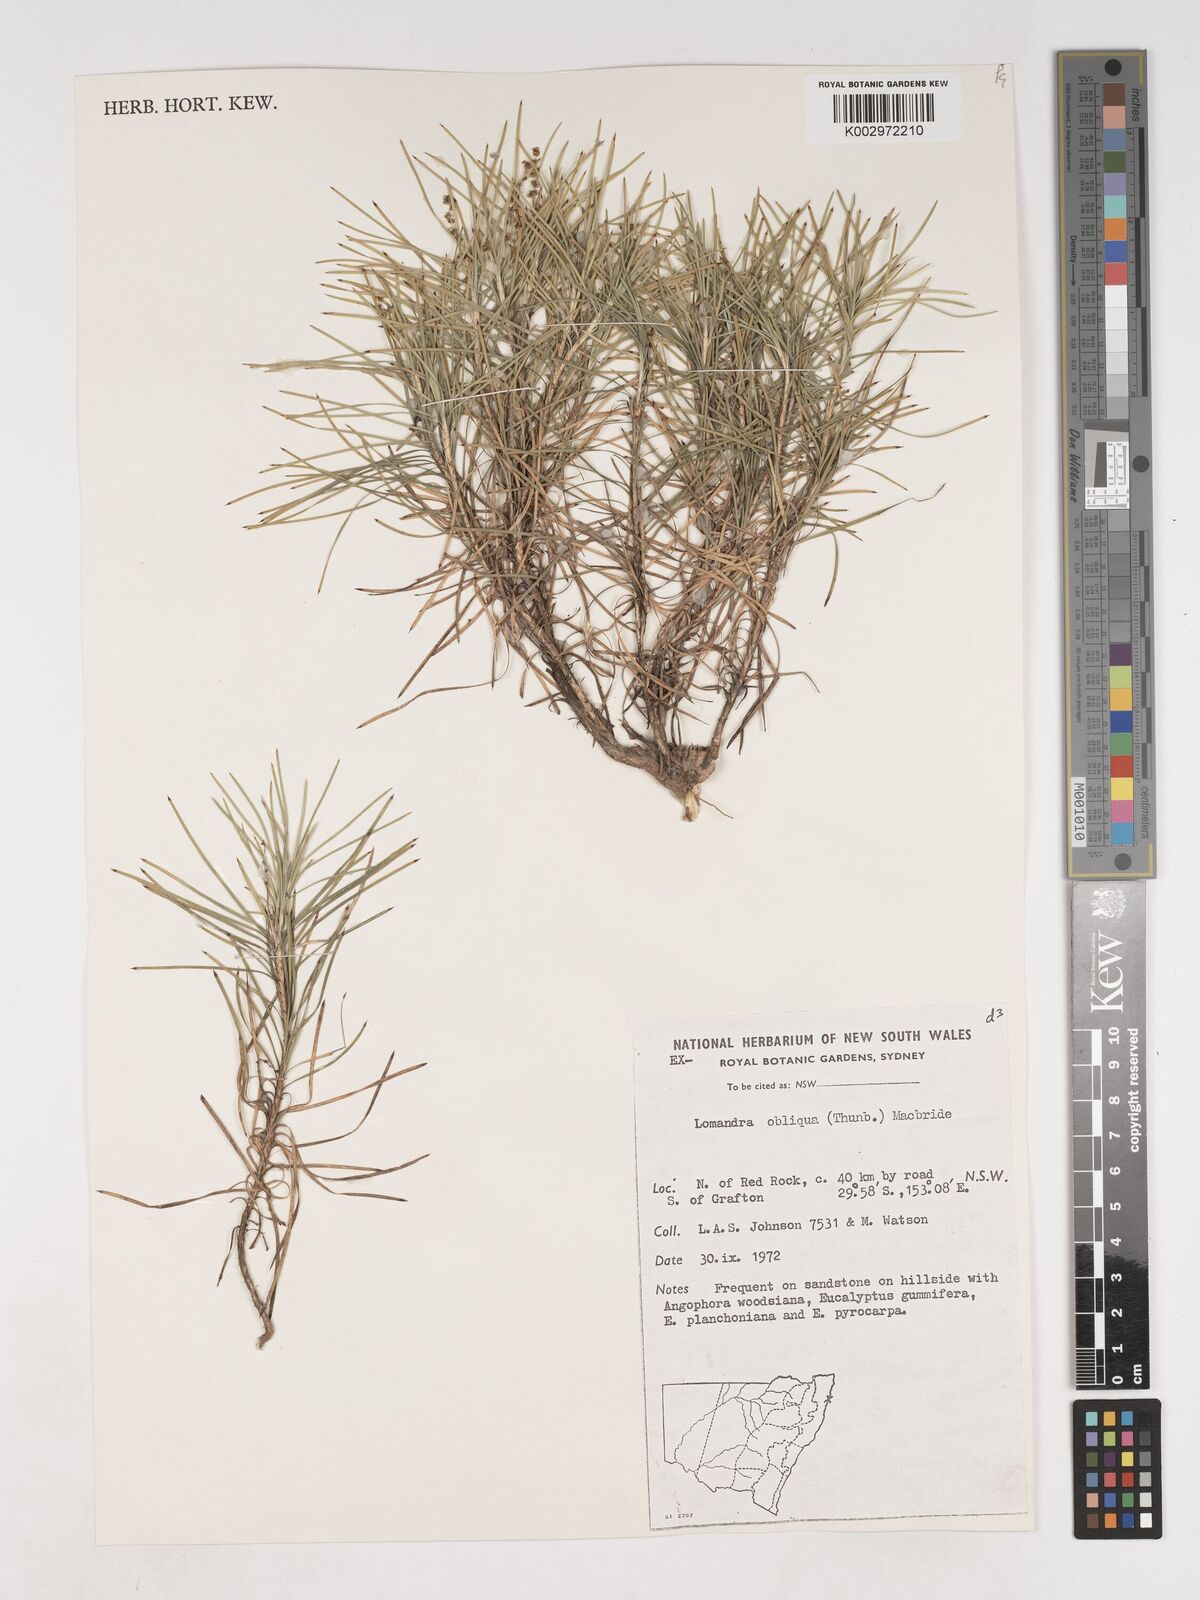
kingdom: Plantae
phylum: Tracheophyta
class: Liliopsida
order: Asparagales
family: Asparagaceae
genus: Lomandra
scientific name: Lomandra obliqua
